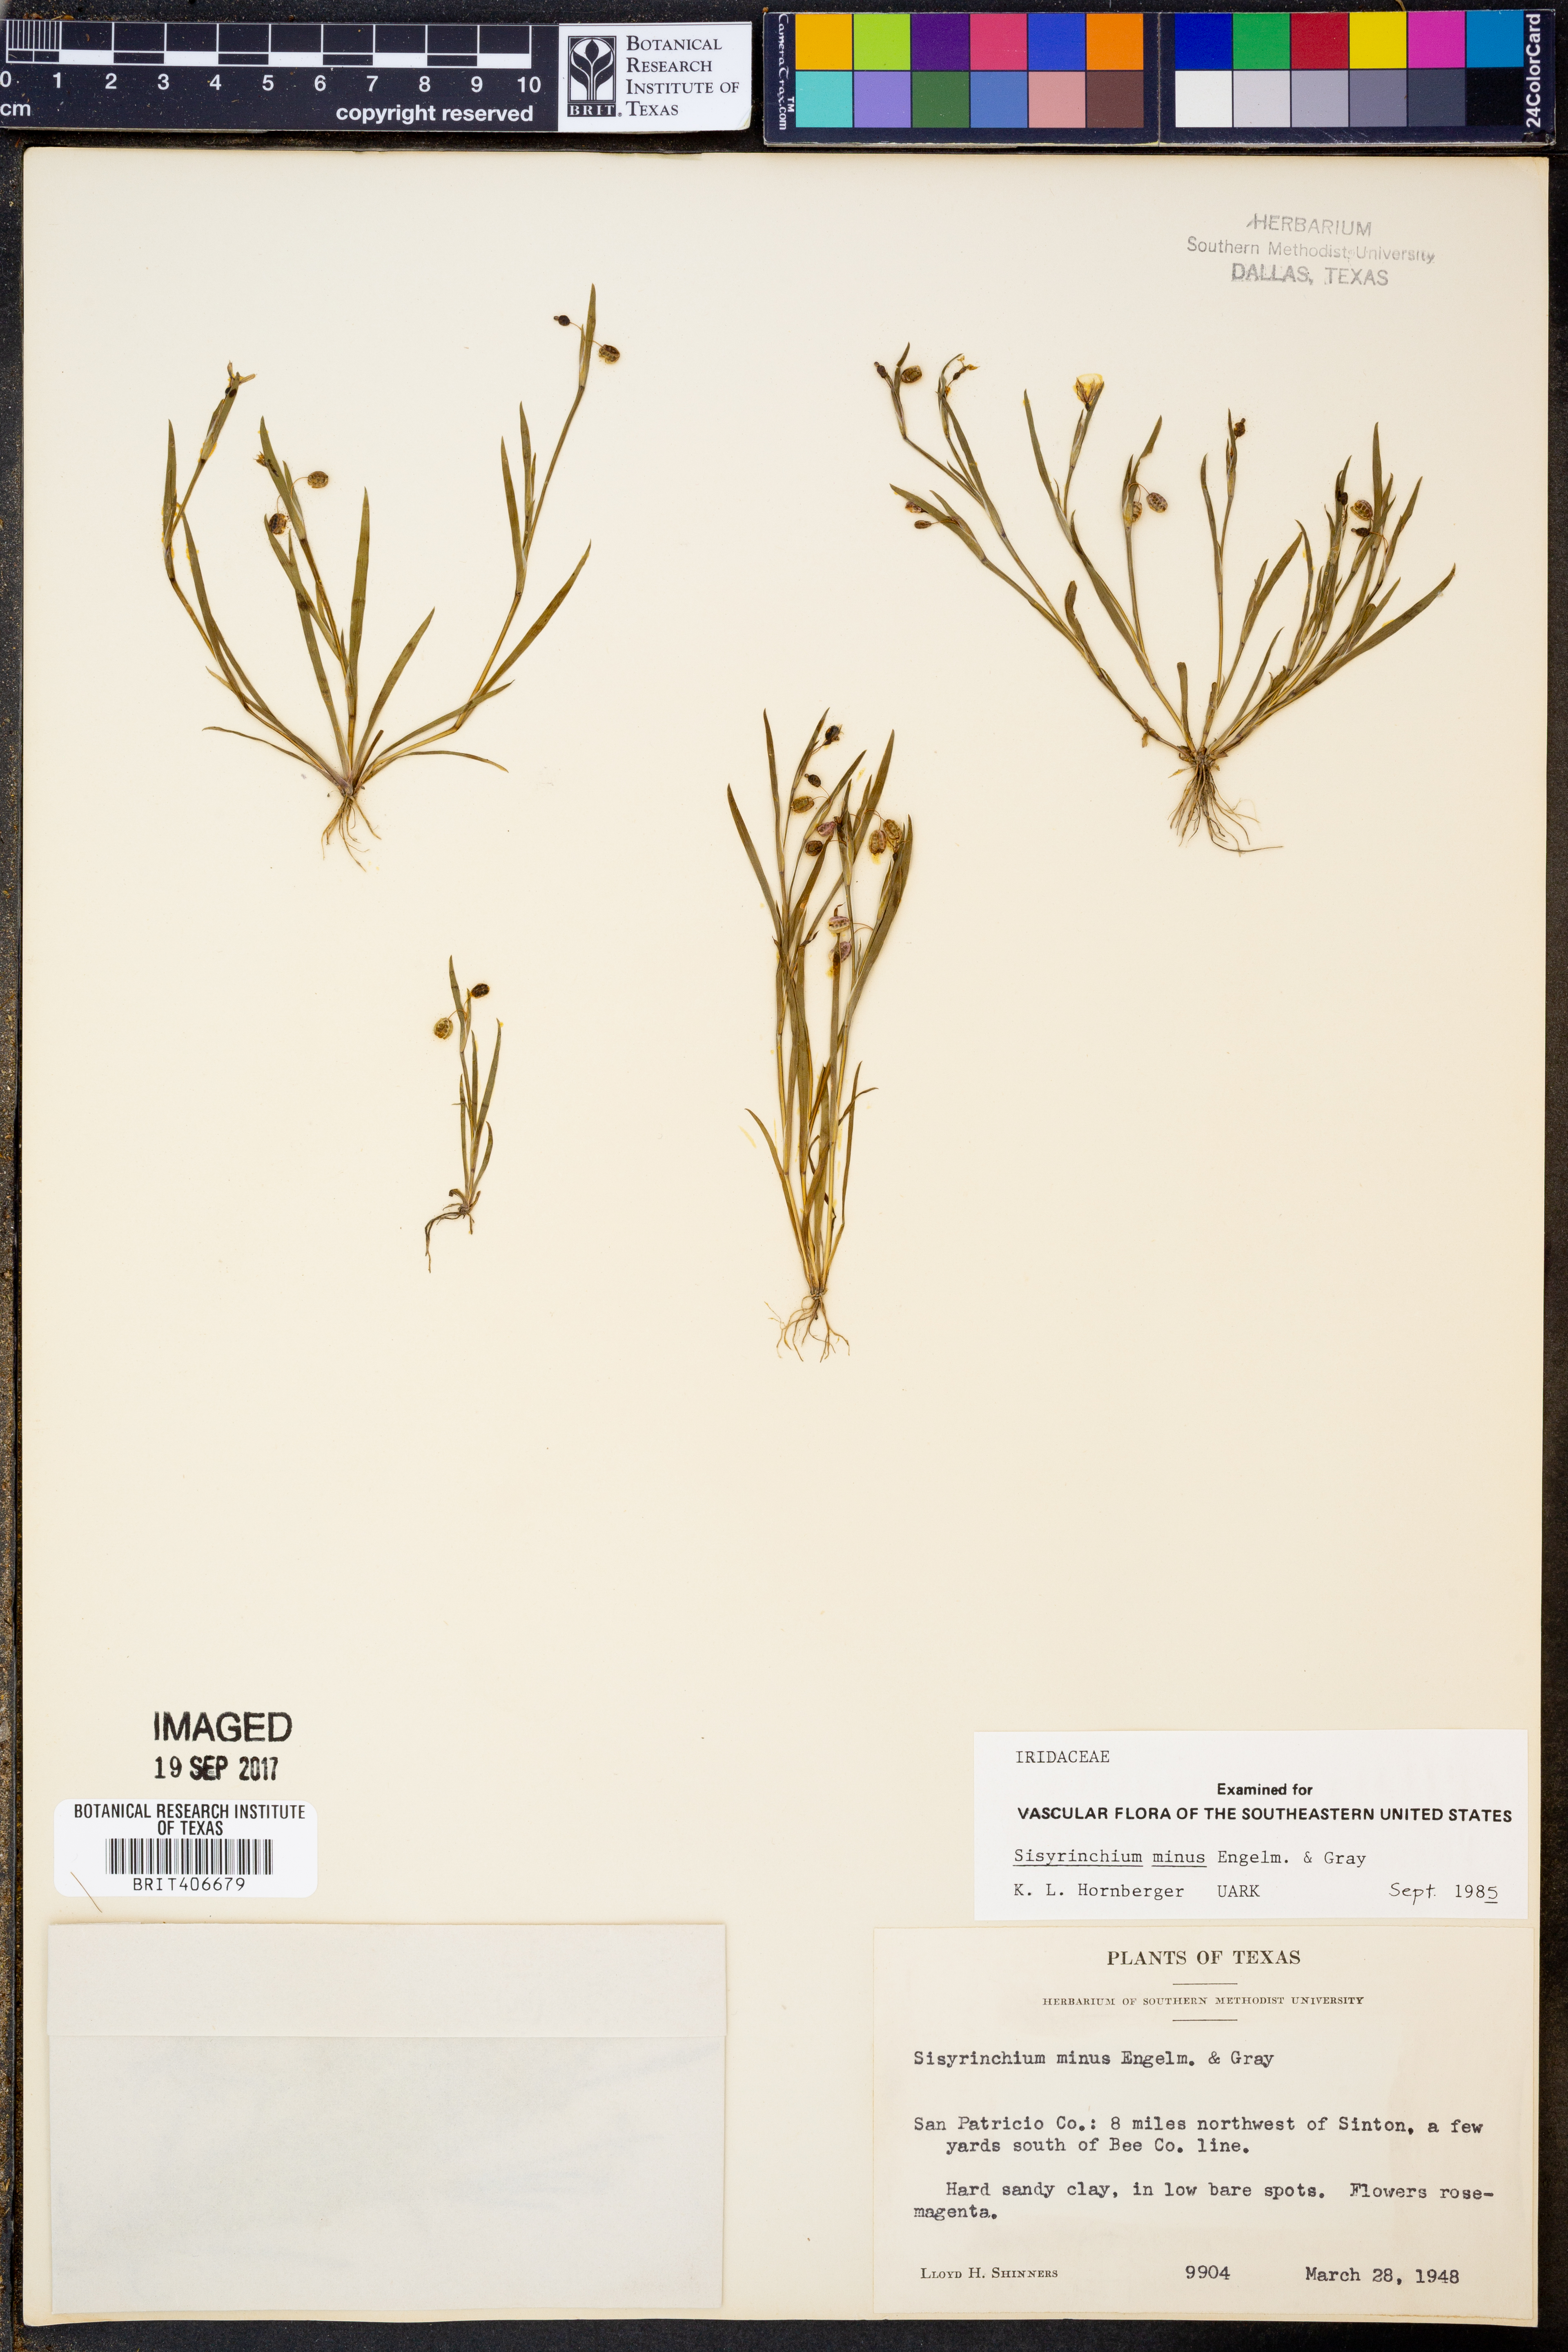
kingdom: Plantae
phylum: Tracheophyta
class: Liliopsida
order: Asparagales
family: Iridaceae
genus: Sisyrinchium
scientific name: Sisyrinchium minus
